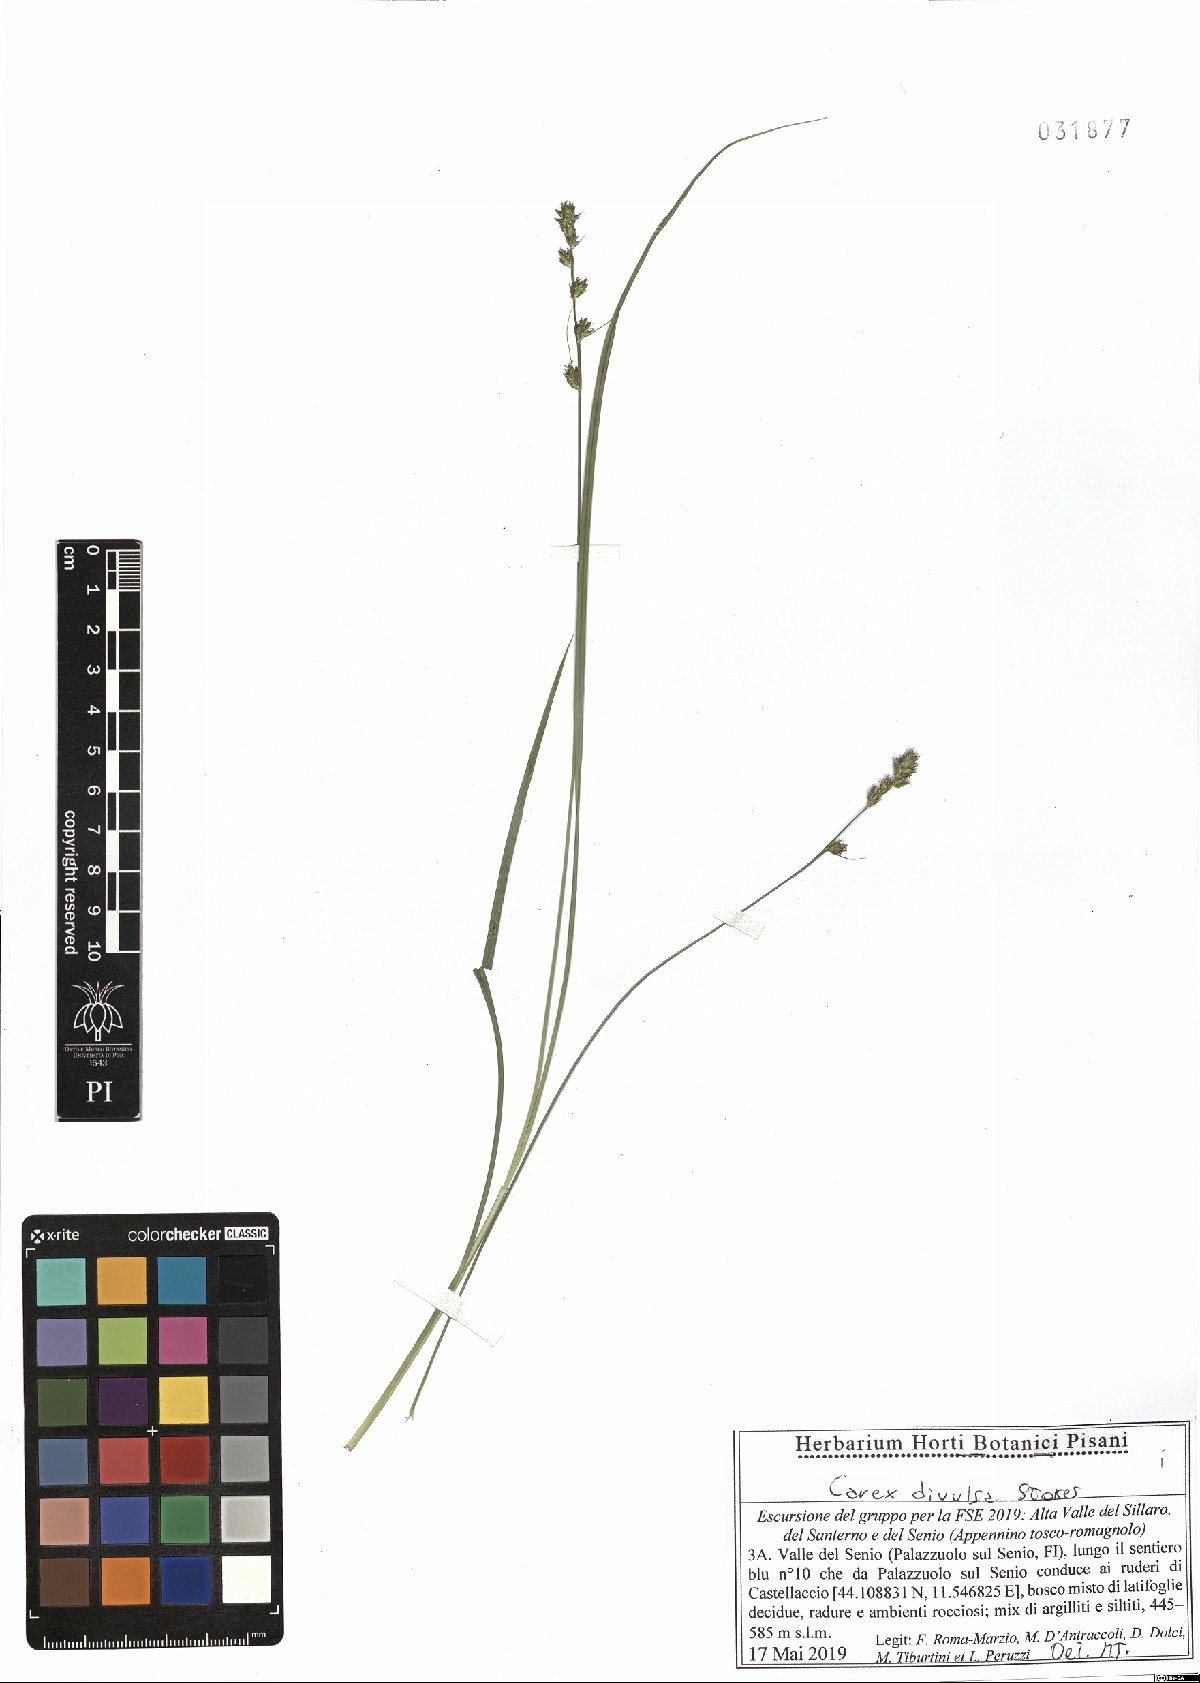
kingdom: Plantae
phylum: Tracheophyta
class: Liliopsida
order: Poales
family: Cyperaceae
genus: Carex
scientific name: Carex divulsa
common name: Grassland sedge
